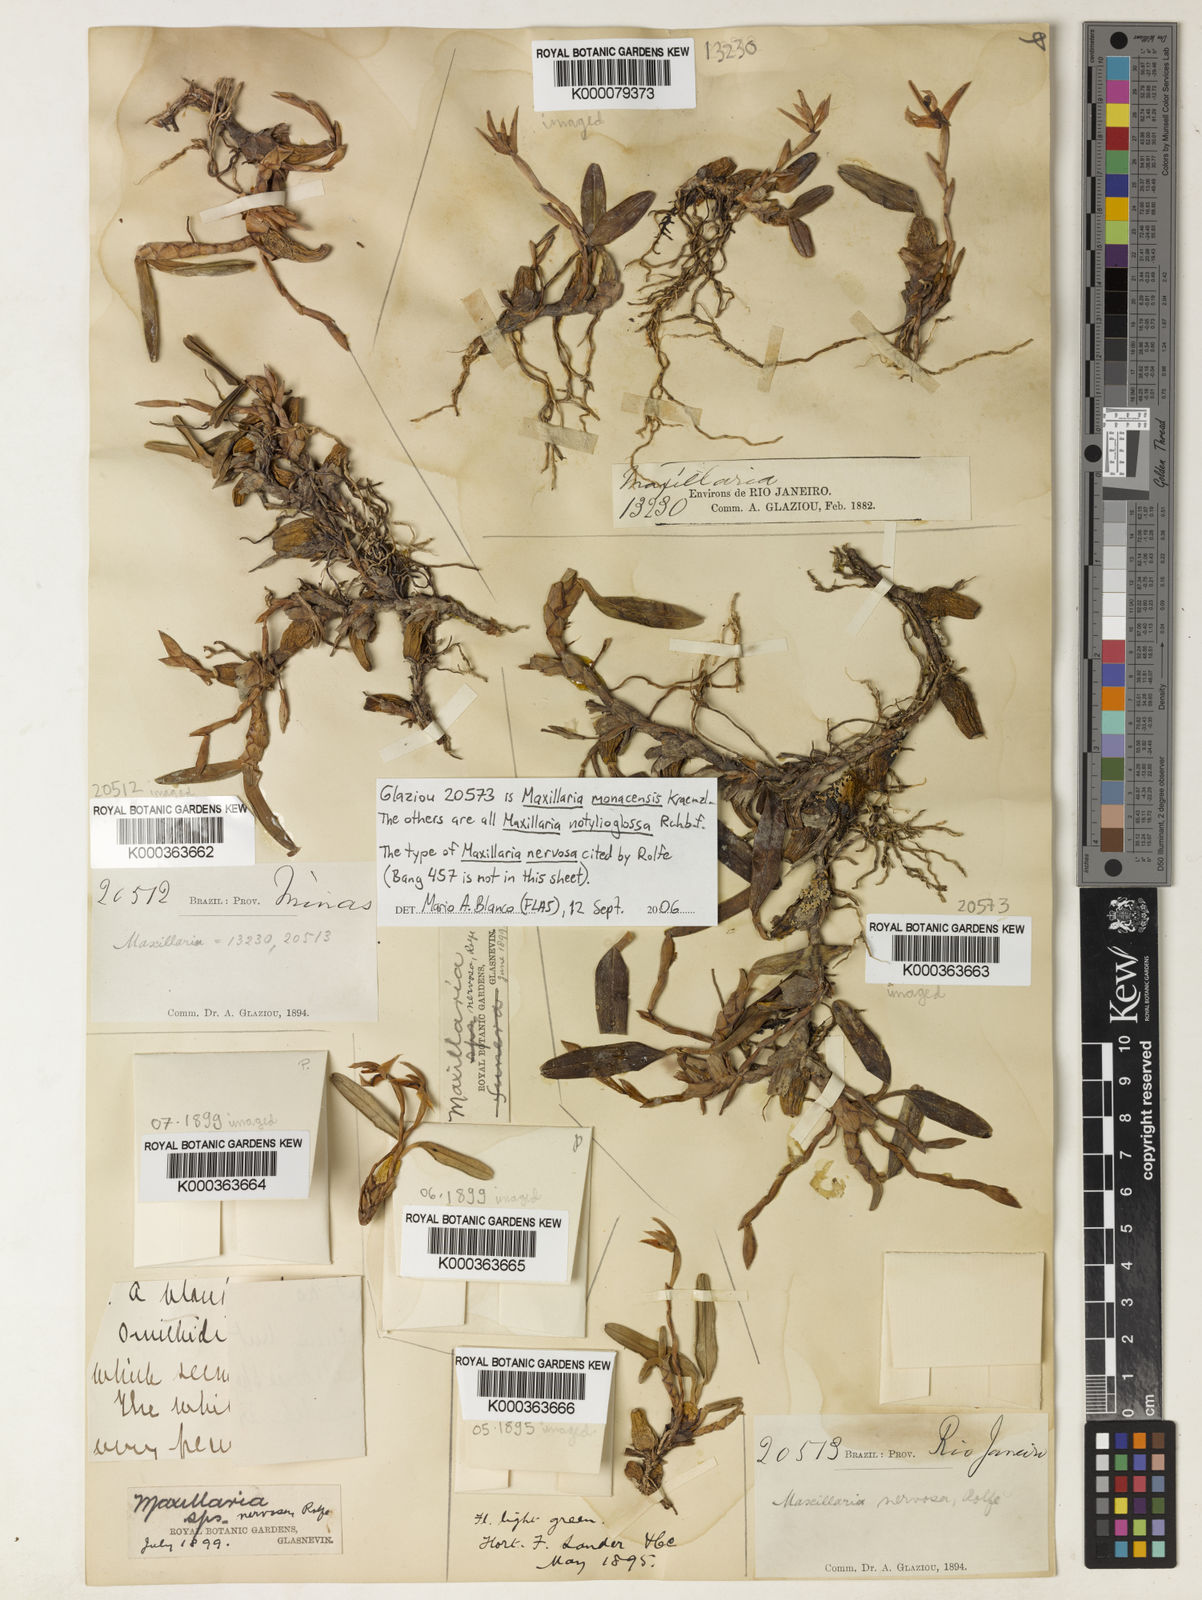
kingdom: Plantae
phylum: Tracheophyta
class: Liliopsida
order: Asparagales
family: Orchidaceae
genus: Maxillaria
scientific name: Maxillaria notylioglossa
